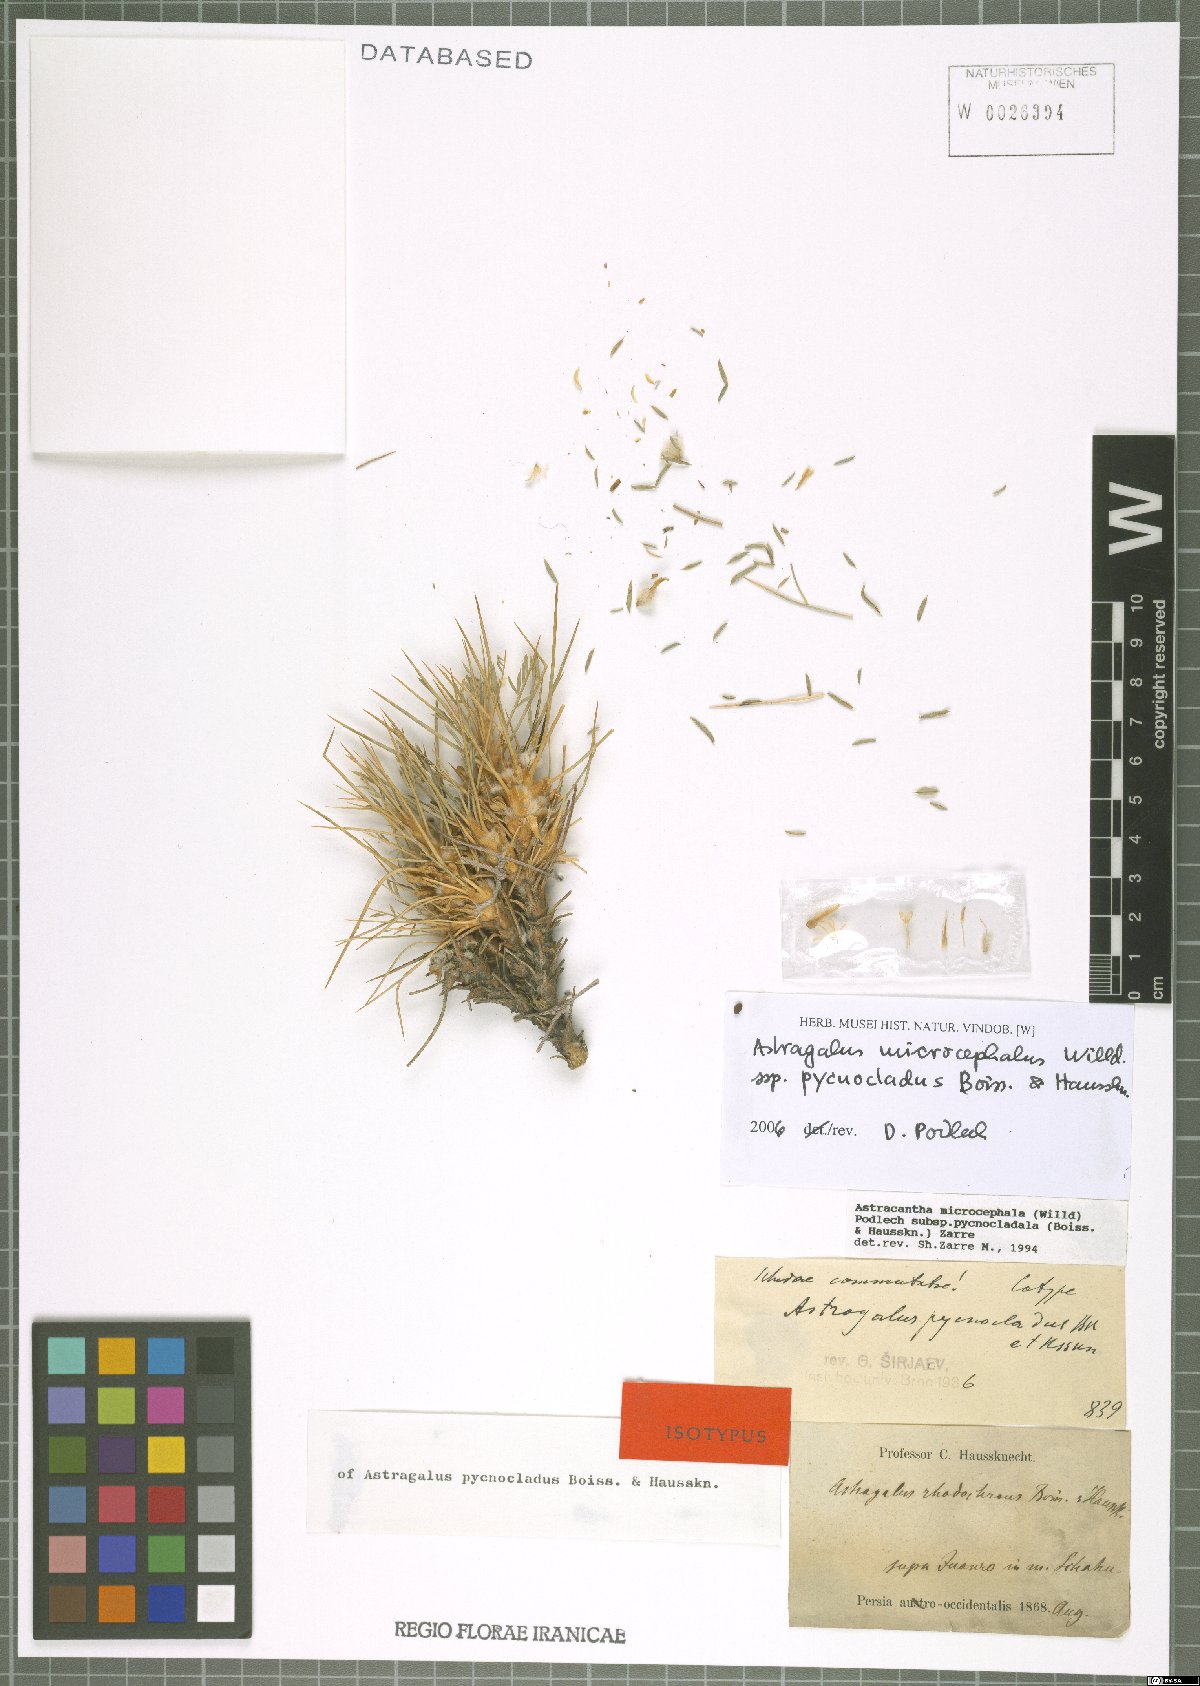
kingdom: Plantae
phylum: Tracheophyta
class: Magnoliopsida
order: Fabales
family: Fabaceae
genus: Astragalus
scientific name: Astragalus microcephalus
